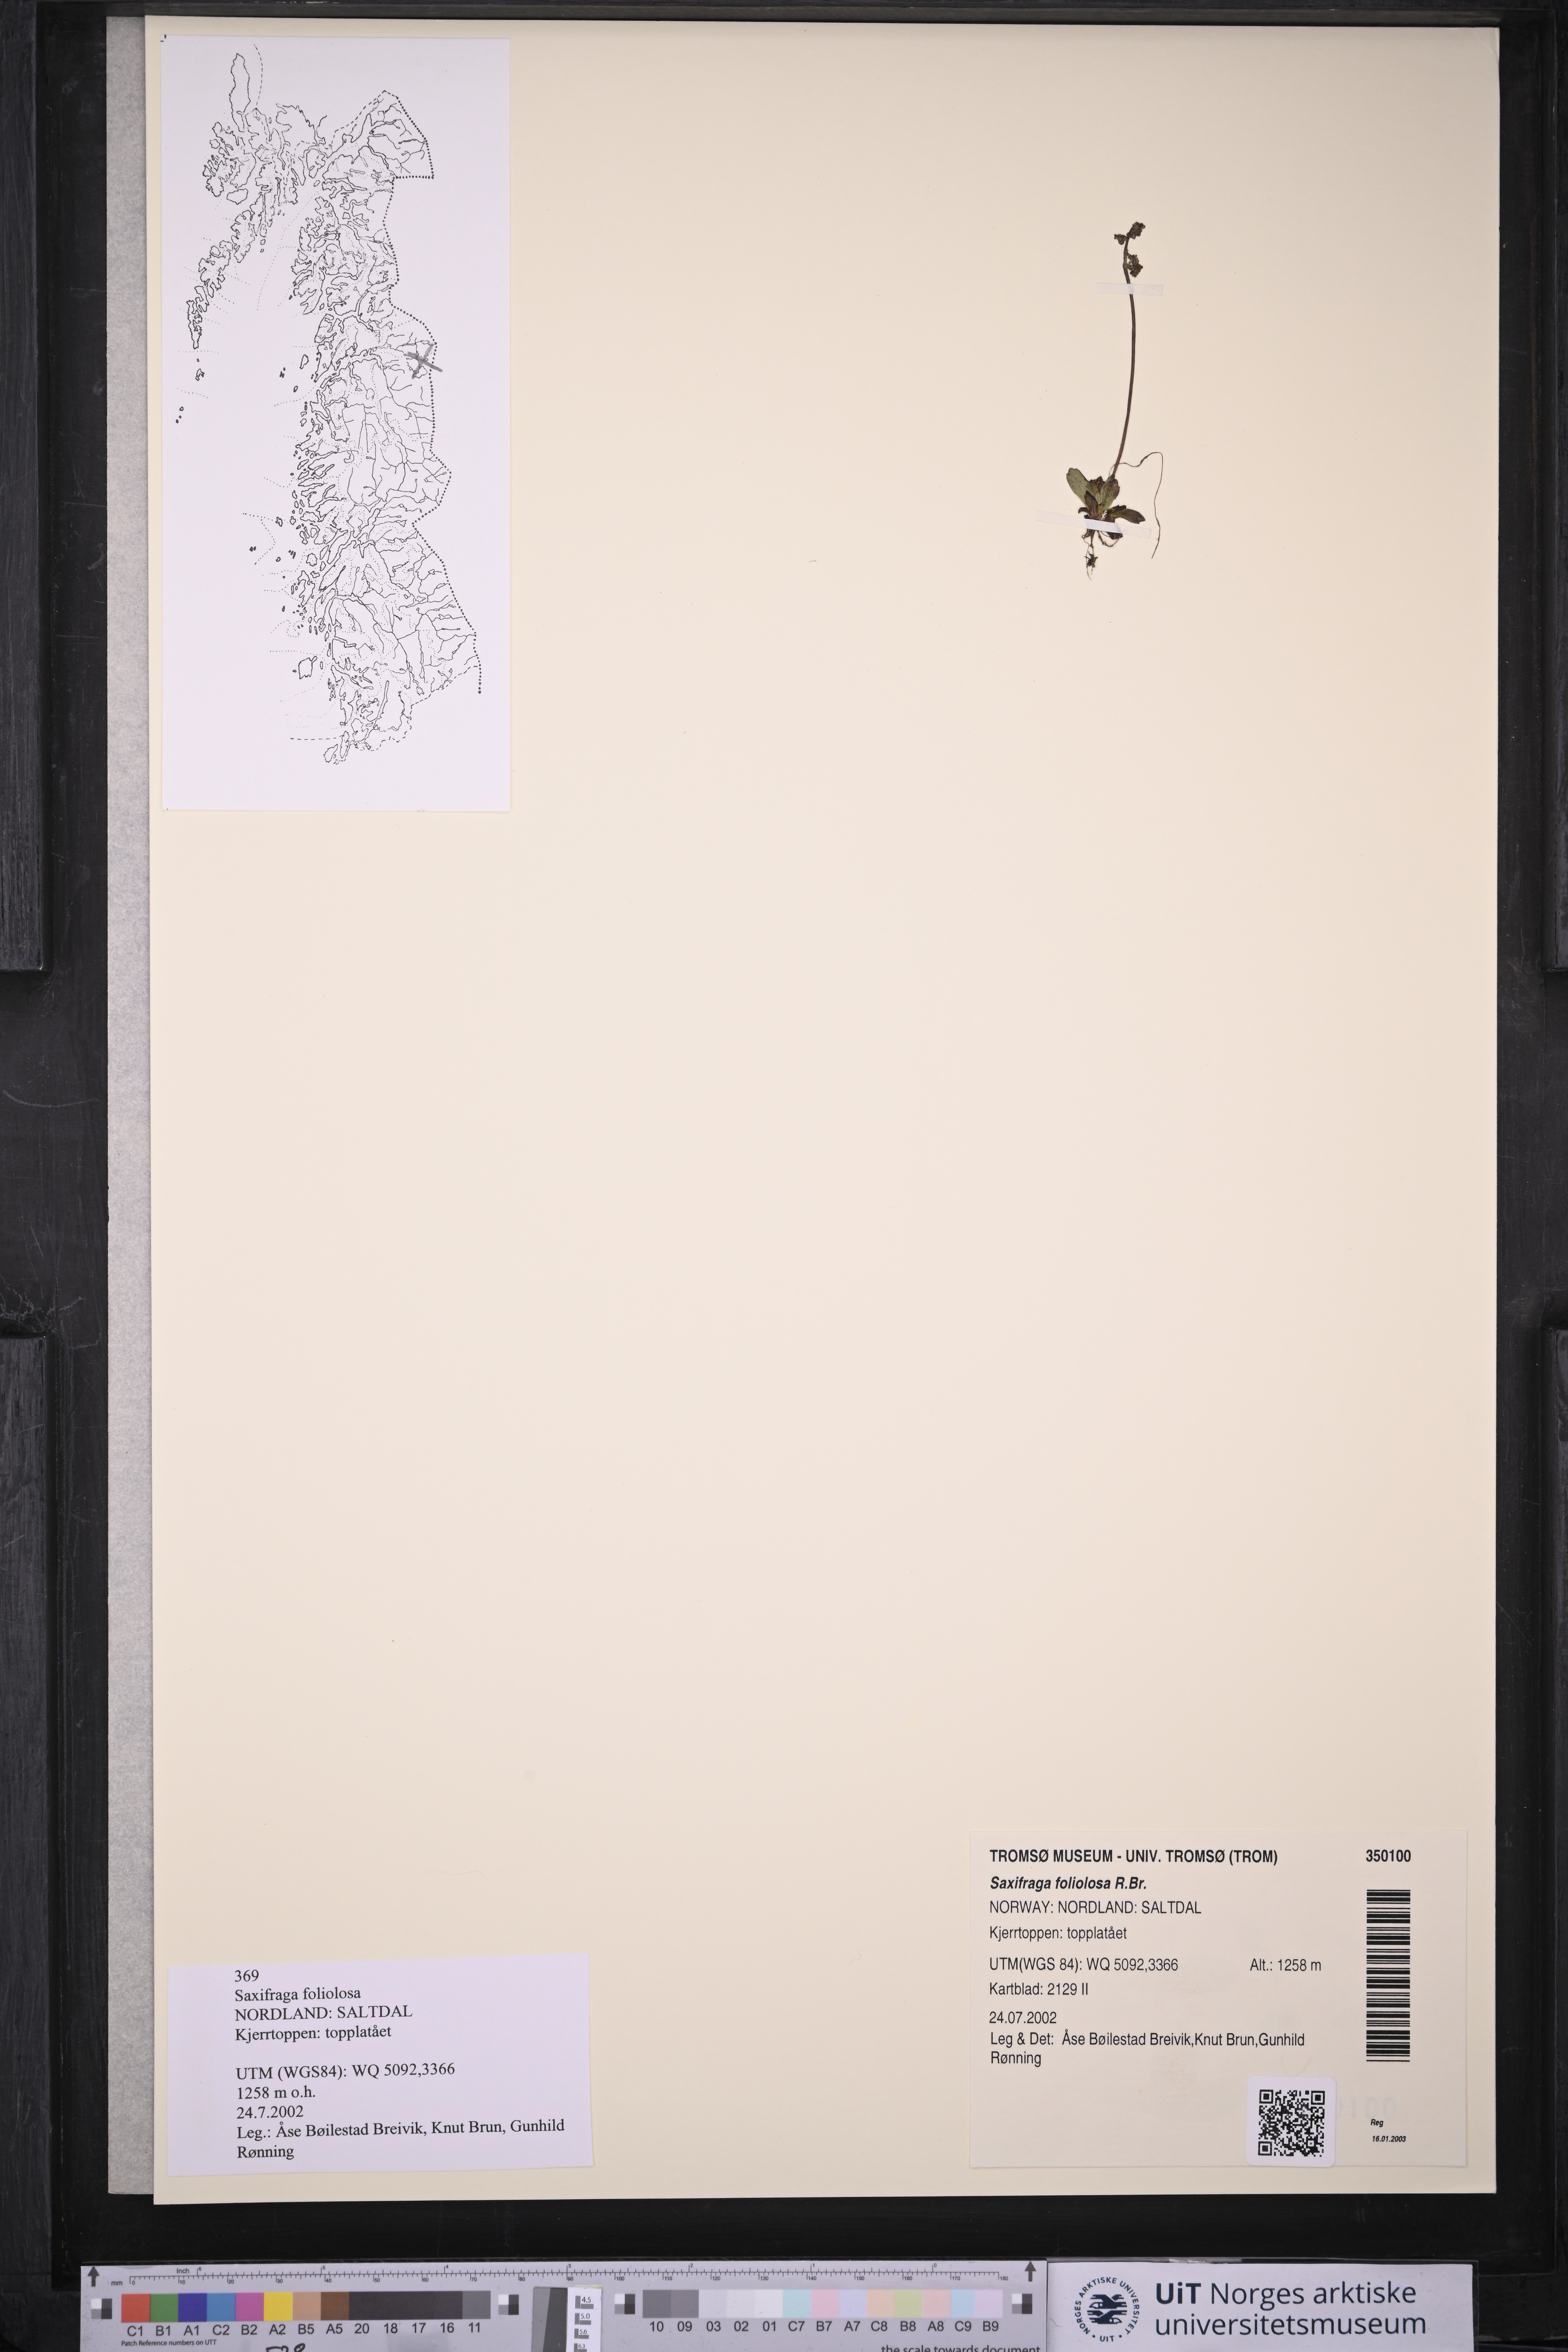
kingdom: Plantae
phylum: Tracheophyta
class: Magnoliopsida
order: Saxifragales
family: Saxifragaceae
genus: Micranthes
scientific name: Micranthes foliolosa
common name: Leafystem saxifrage
